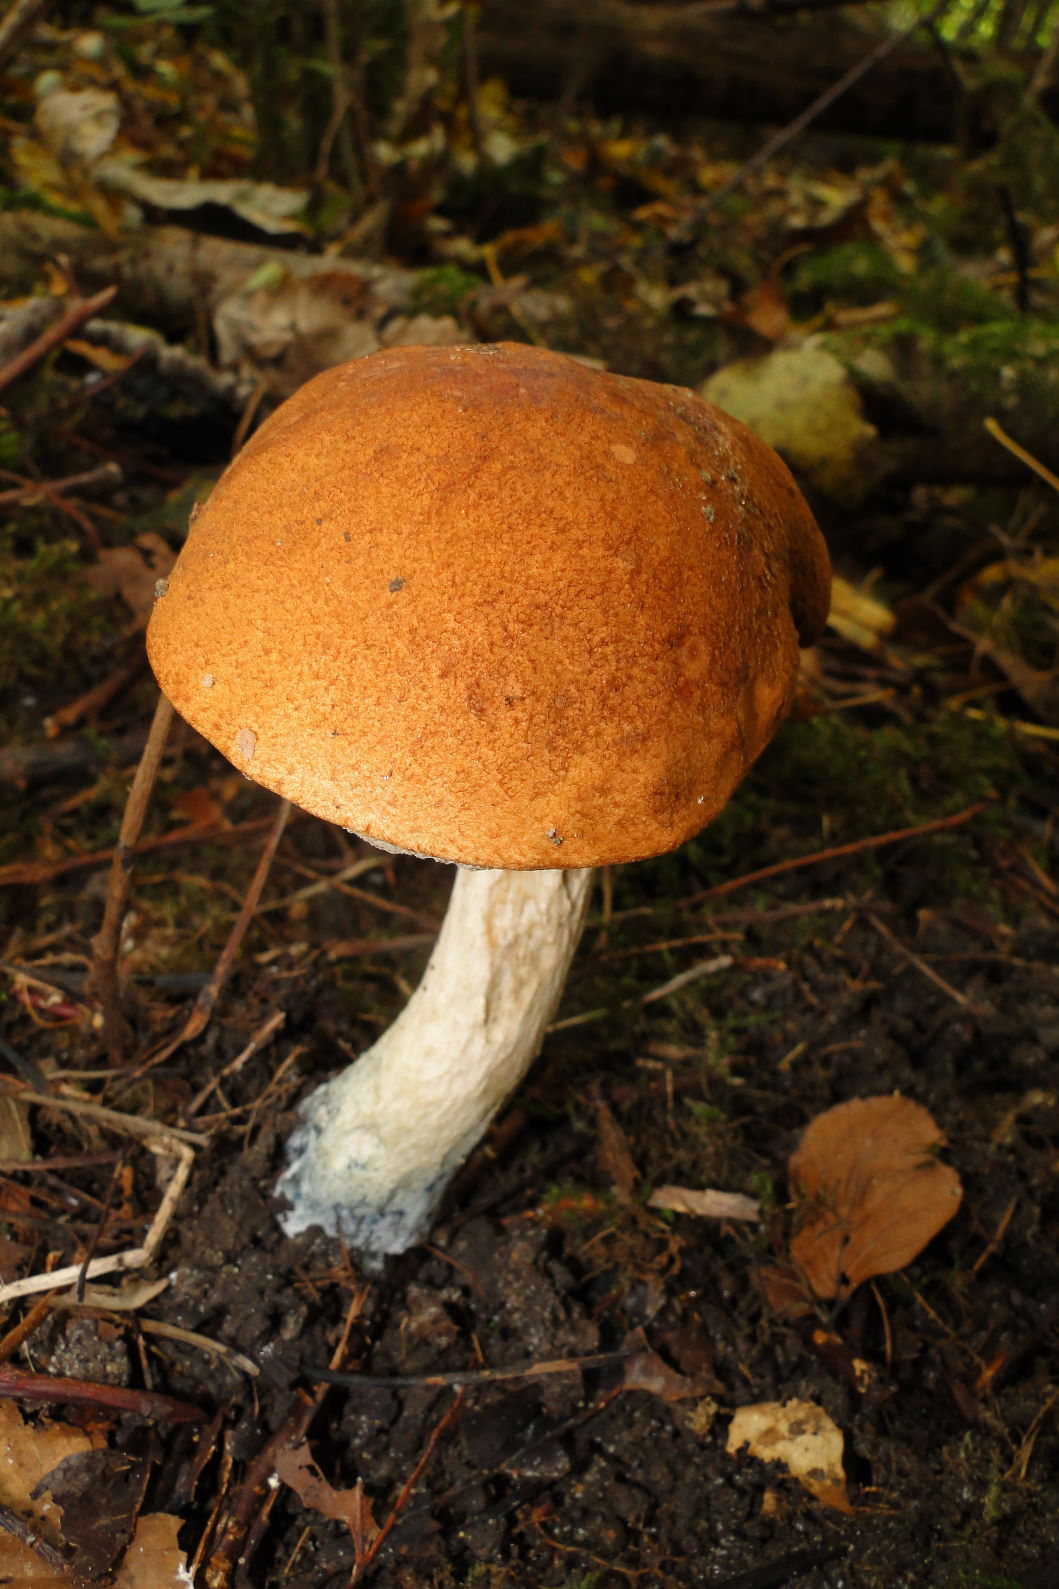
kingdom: Fungi
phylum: Basidiomycota
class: Agaricomycetes
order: Boletales
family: Boletaceae
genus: Leccinum
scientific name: Leccinum albostipitatum
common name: aspe-skælrørhat
